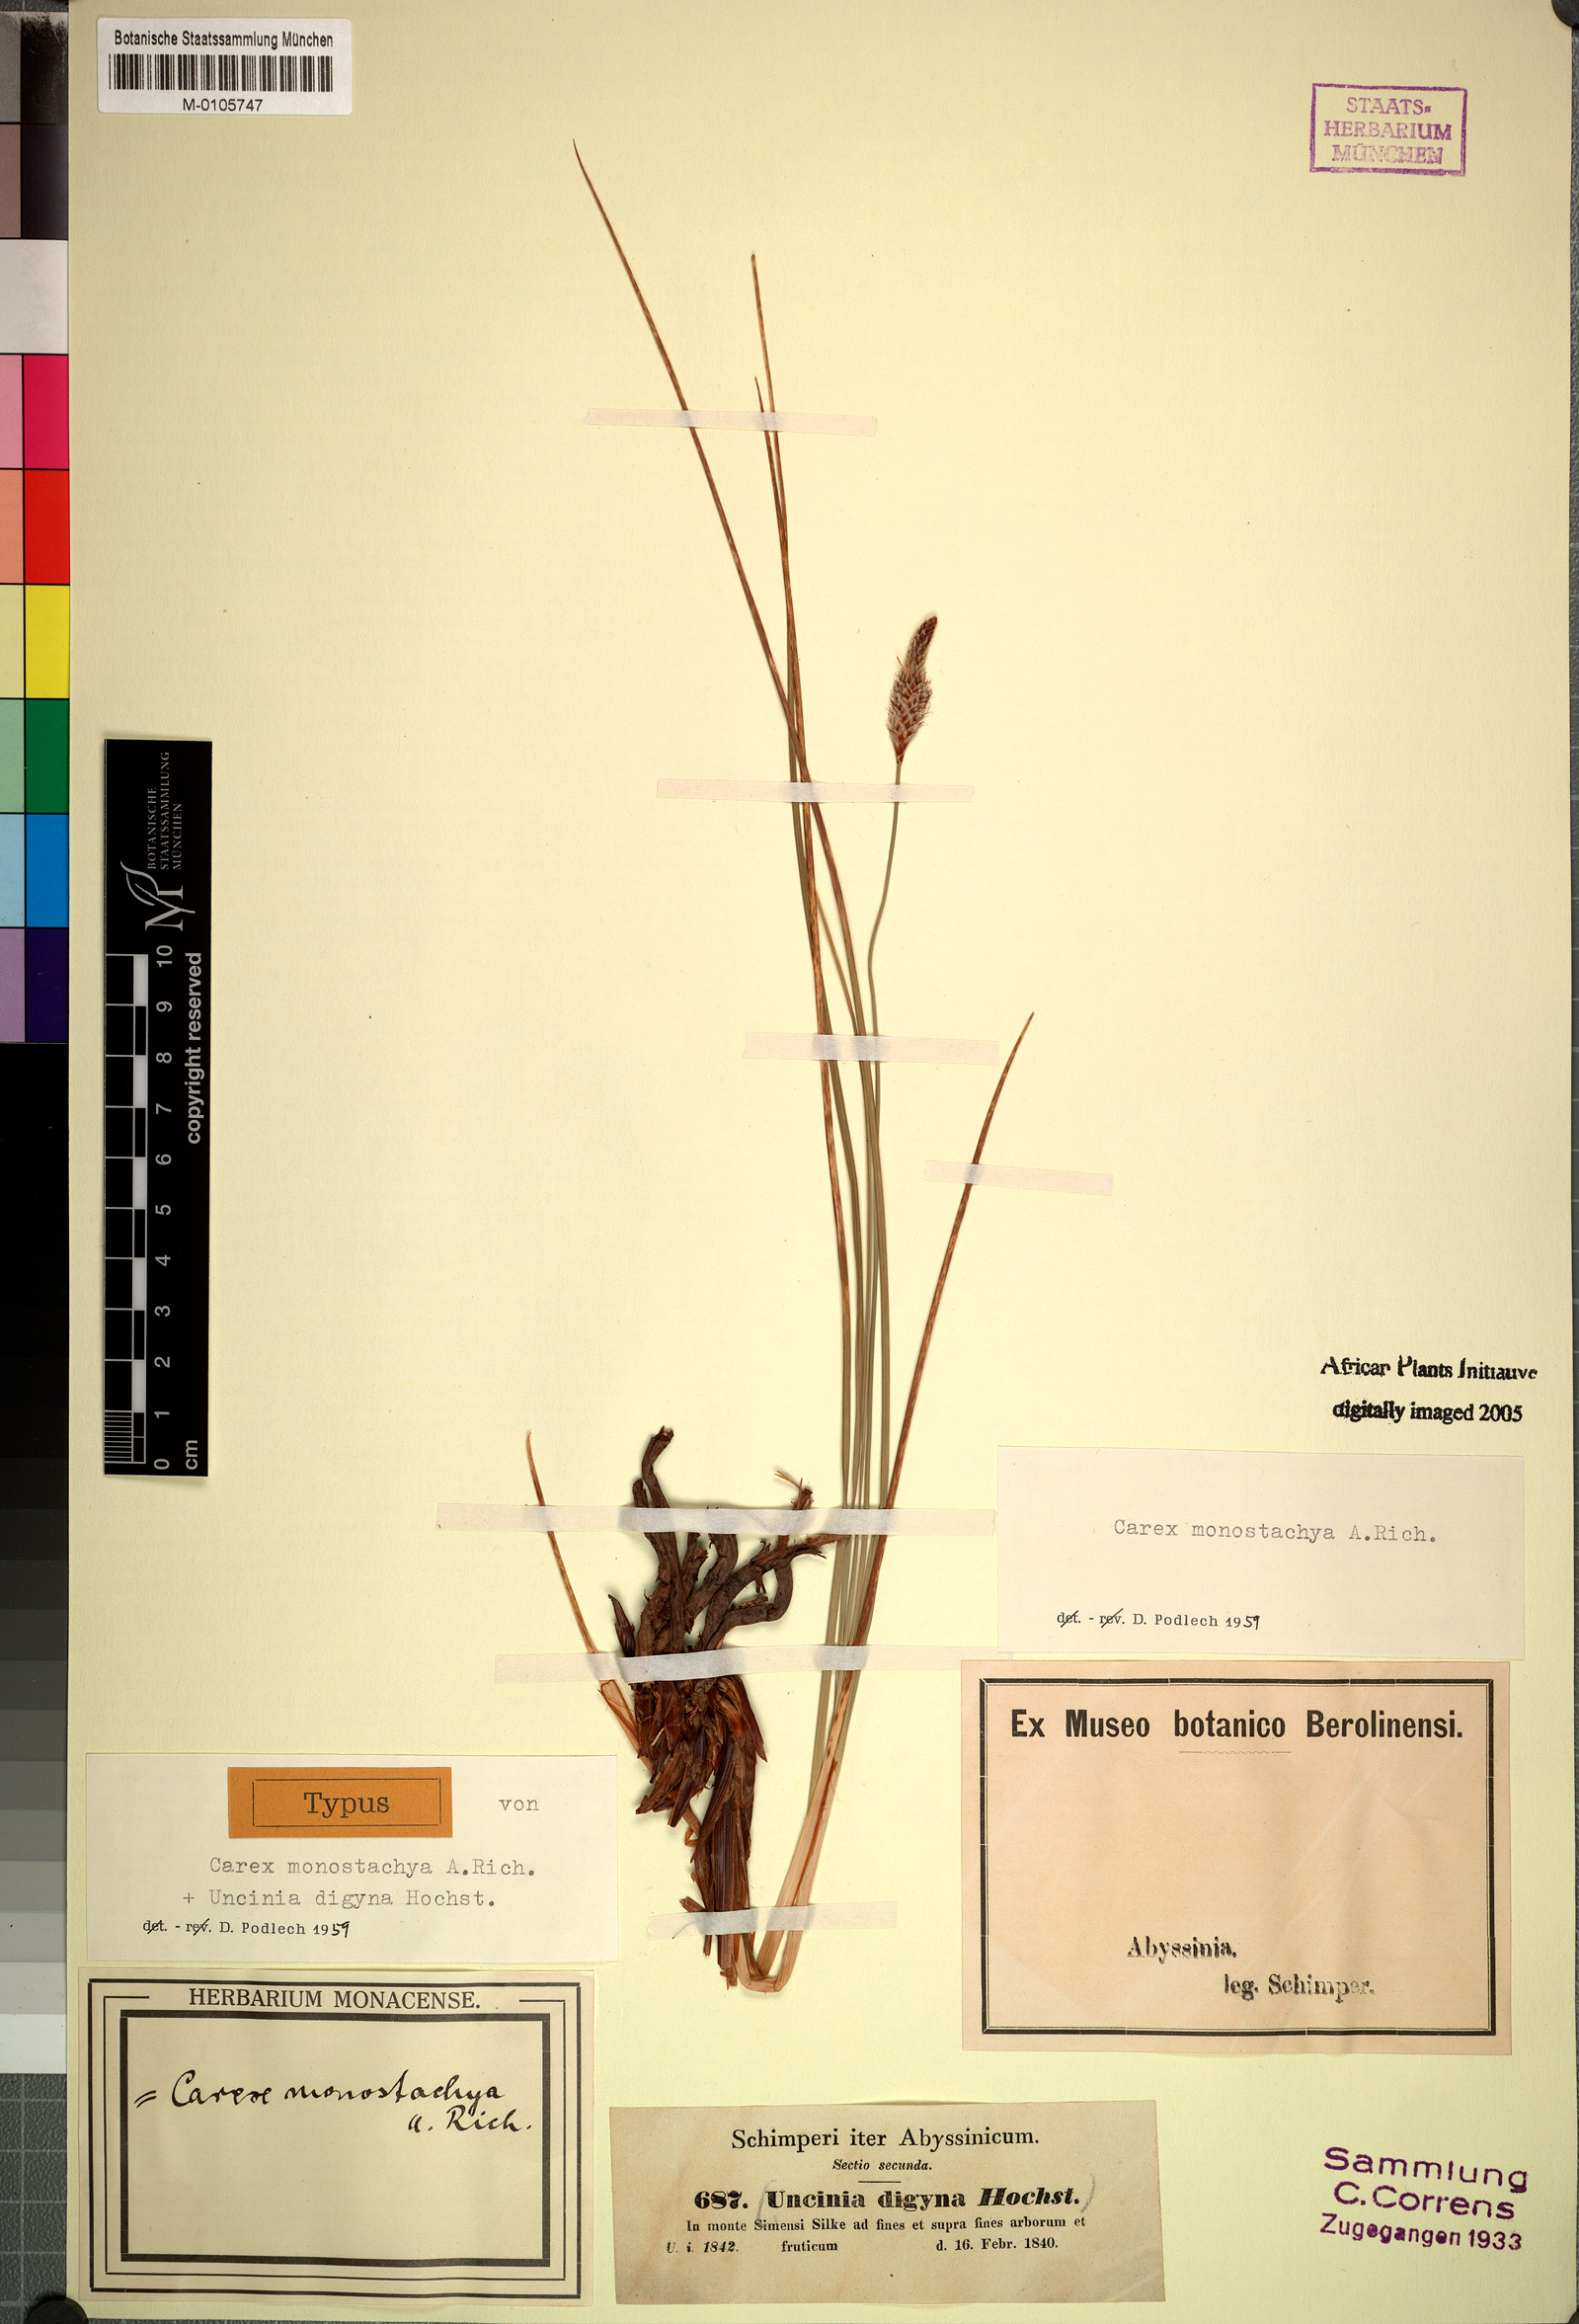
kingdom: Plantae
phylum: Tracheophyta
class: Liliopsida
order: Poales
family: Cyperaceae
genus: Carex
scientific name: Carex monostachya
